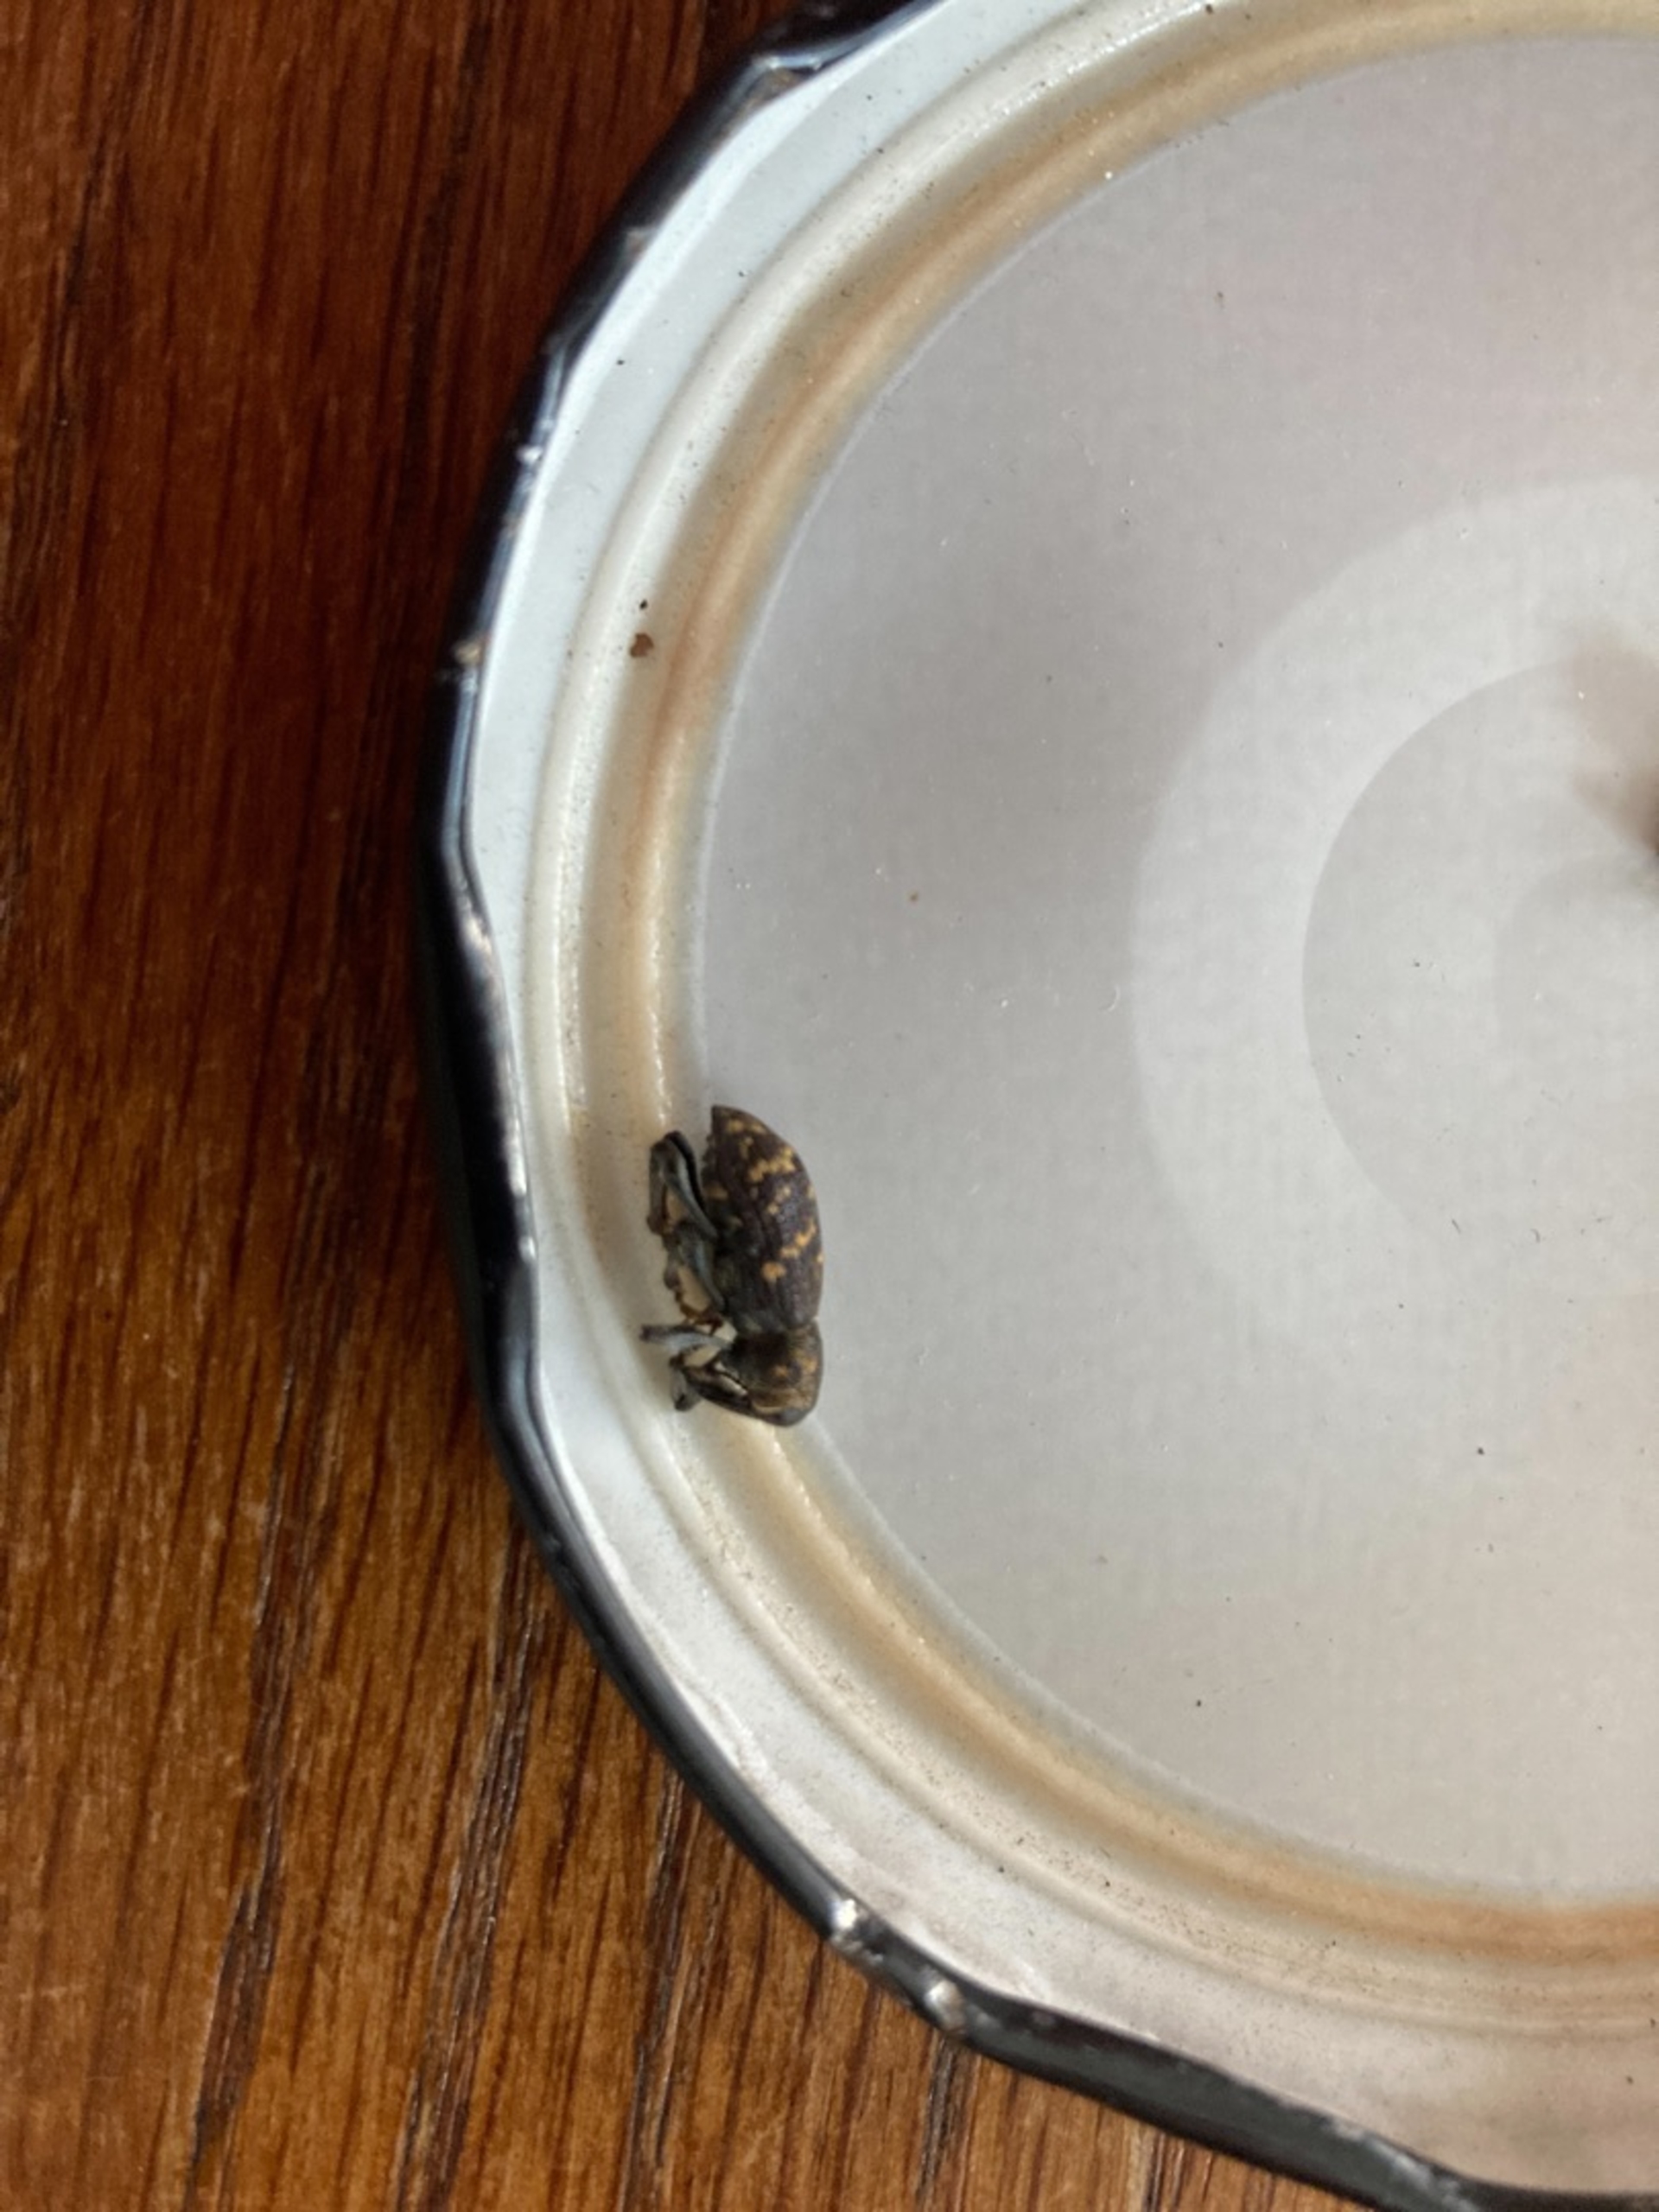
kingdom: Animalia
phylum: Arthropoda
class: Insecta
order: Coleoptera
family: Curculionidae
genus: Hylobius
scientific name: Hylobius abietis
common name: Stor nåletræsnudebille
